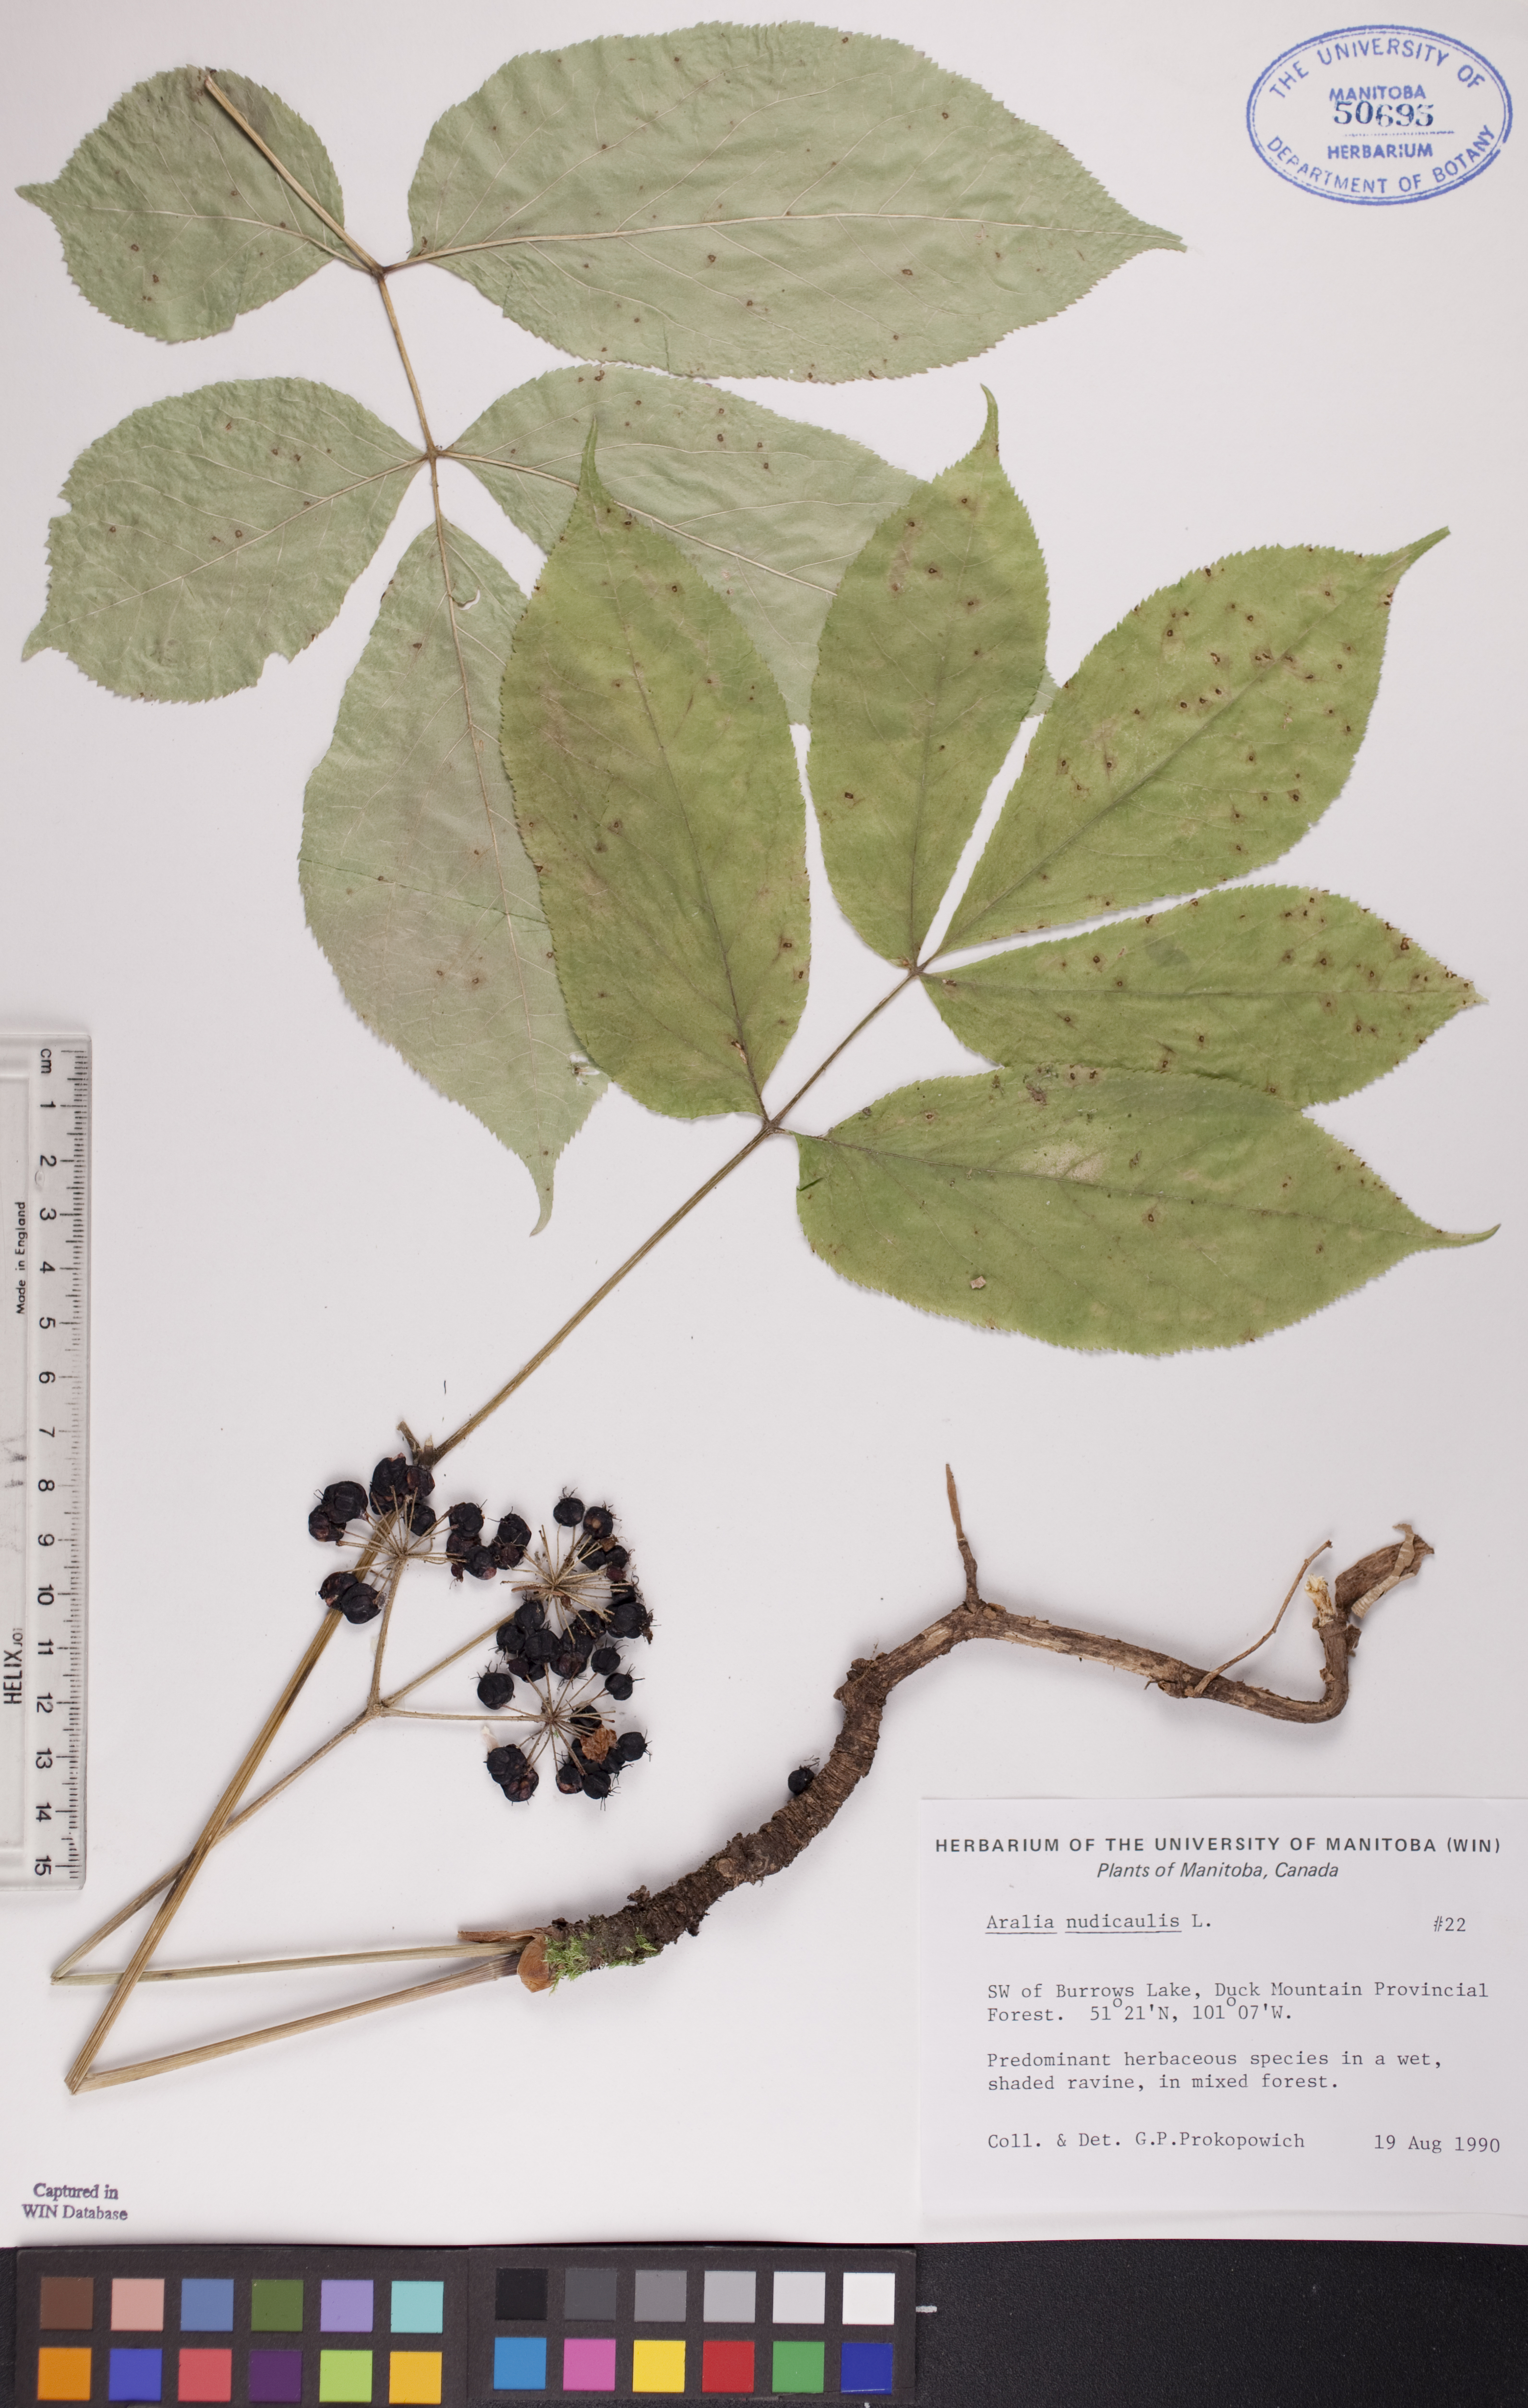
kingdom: Plantae
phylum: Tracheophyta
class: Magnoliopsida
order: Apiales
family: Araliaceae
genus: Aralia
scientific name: Aralia nudicaulis
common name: Wild sarsaparilla
